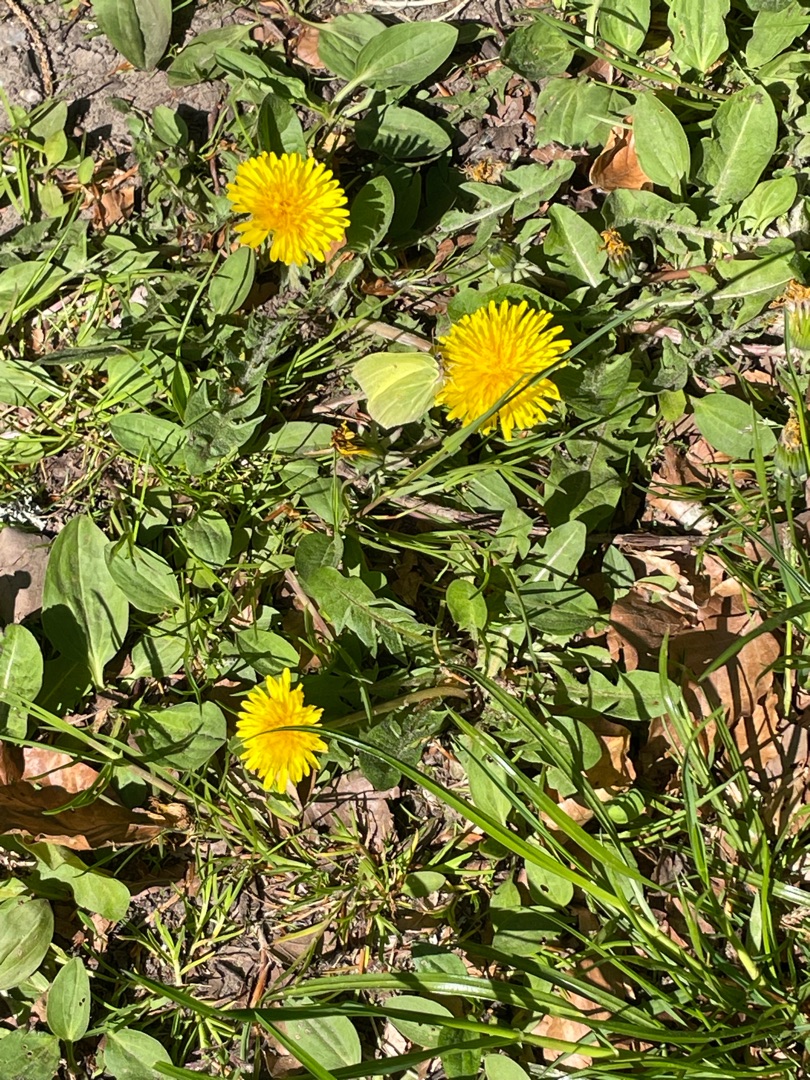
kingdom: Animalia
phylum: Arthropoda
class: Insecta
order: Lepidoptera
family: Pieridae
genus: Gonepteryx
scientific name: Gonepteryx rhamni
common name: Citronsommerfugl
